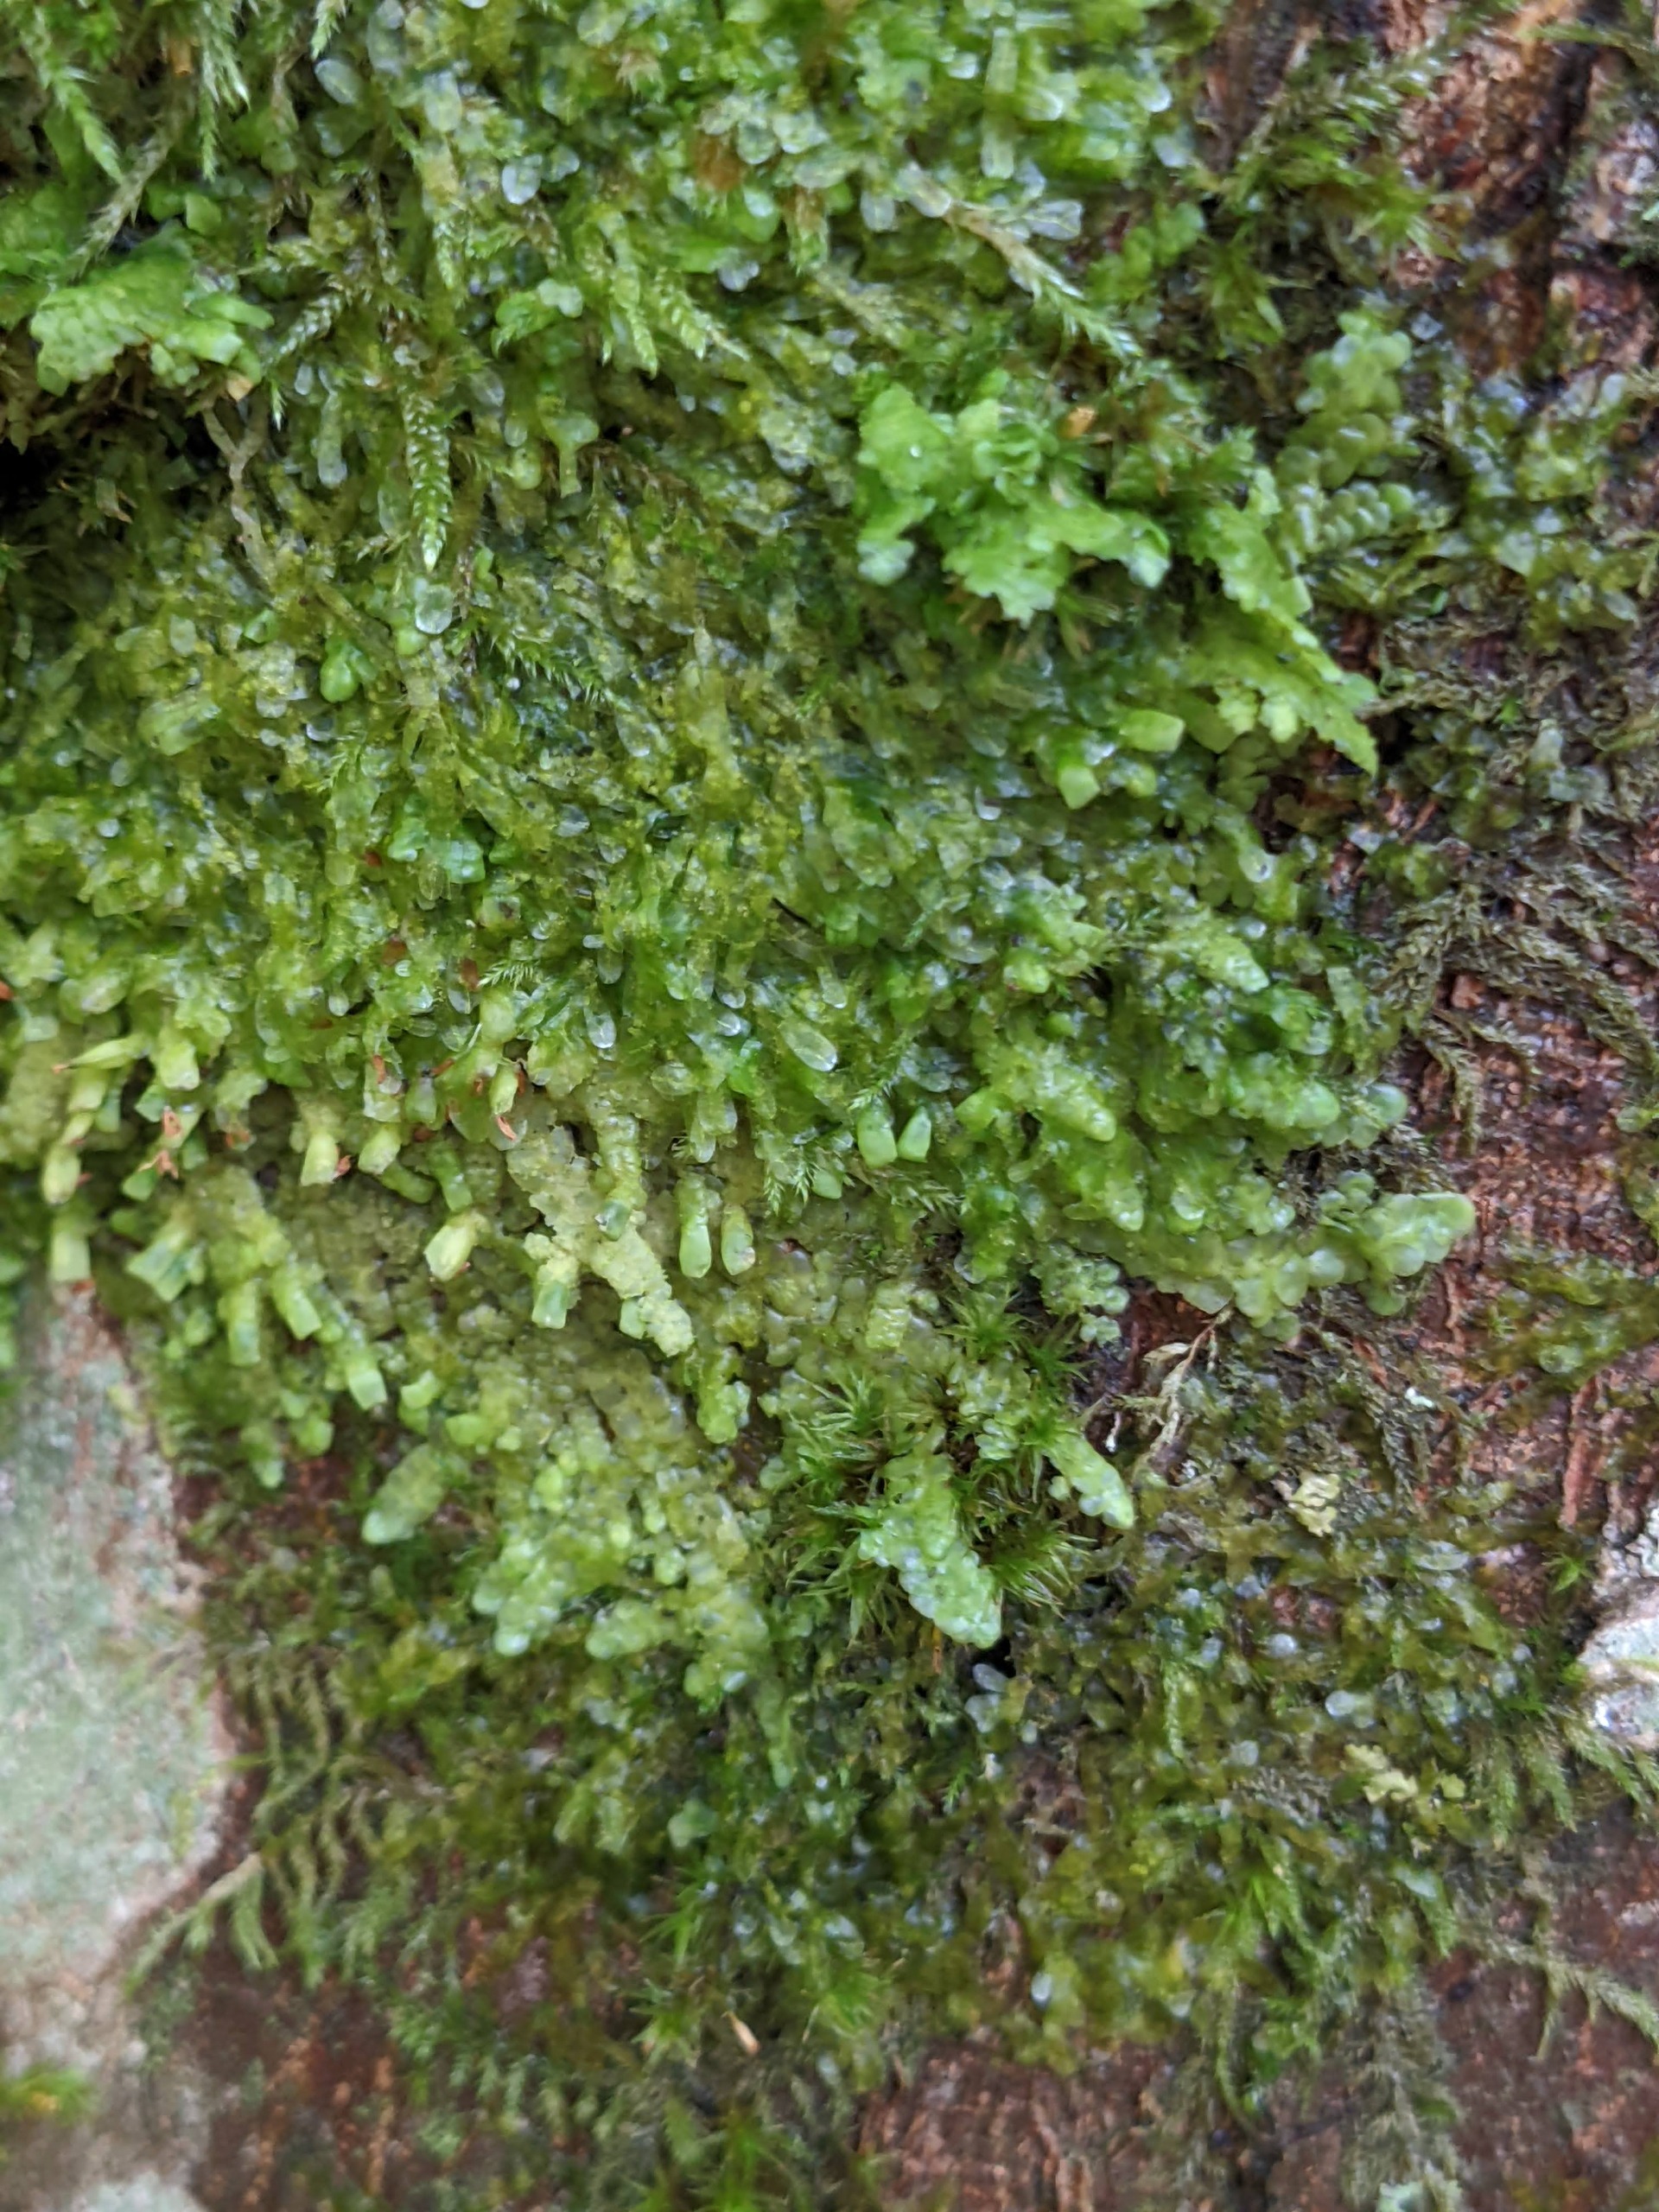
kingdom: Plantae
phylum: Marchantiophyta
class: Jungermanniopsida
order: Porellales
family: Radulaceae
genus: Radula
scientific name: Radula complanata
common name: Almindelig spartelmos
